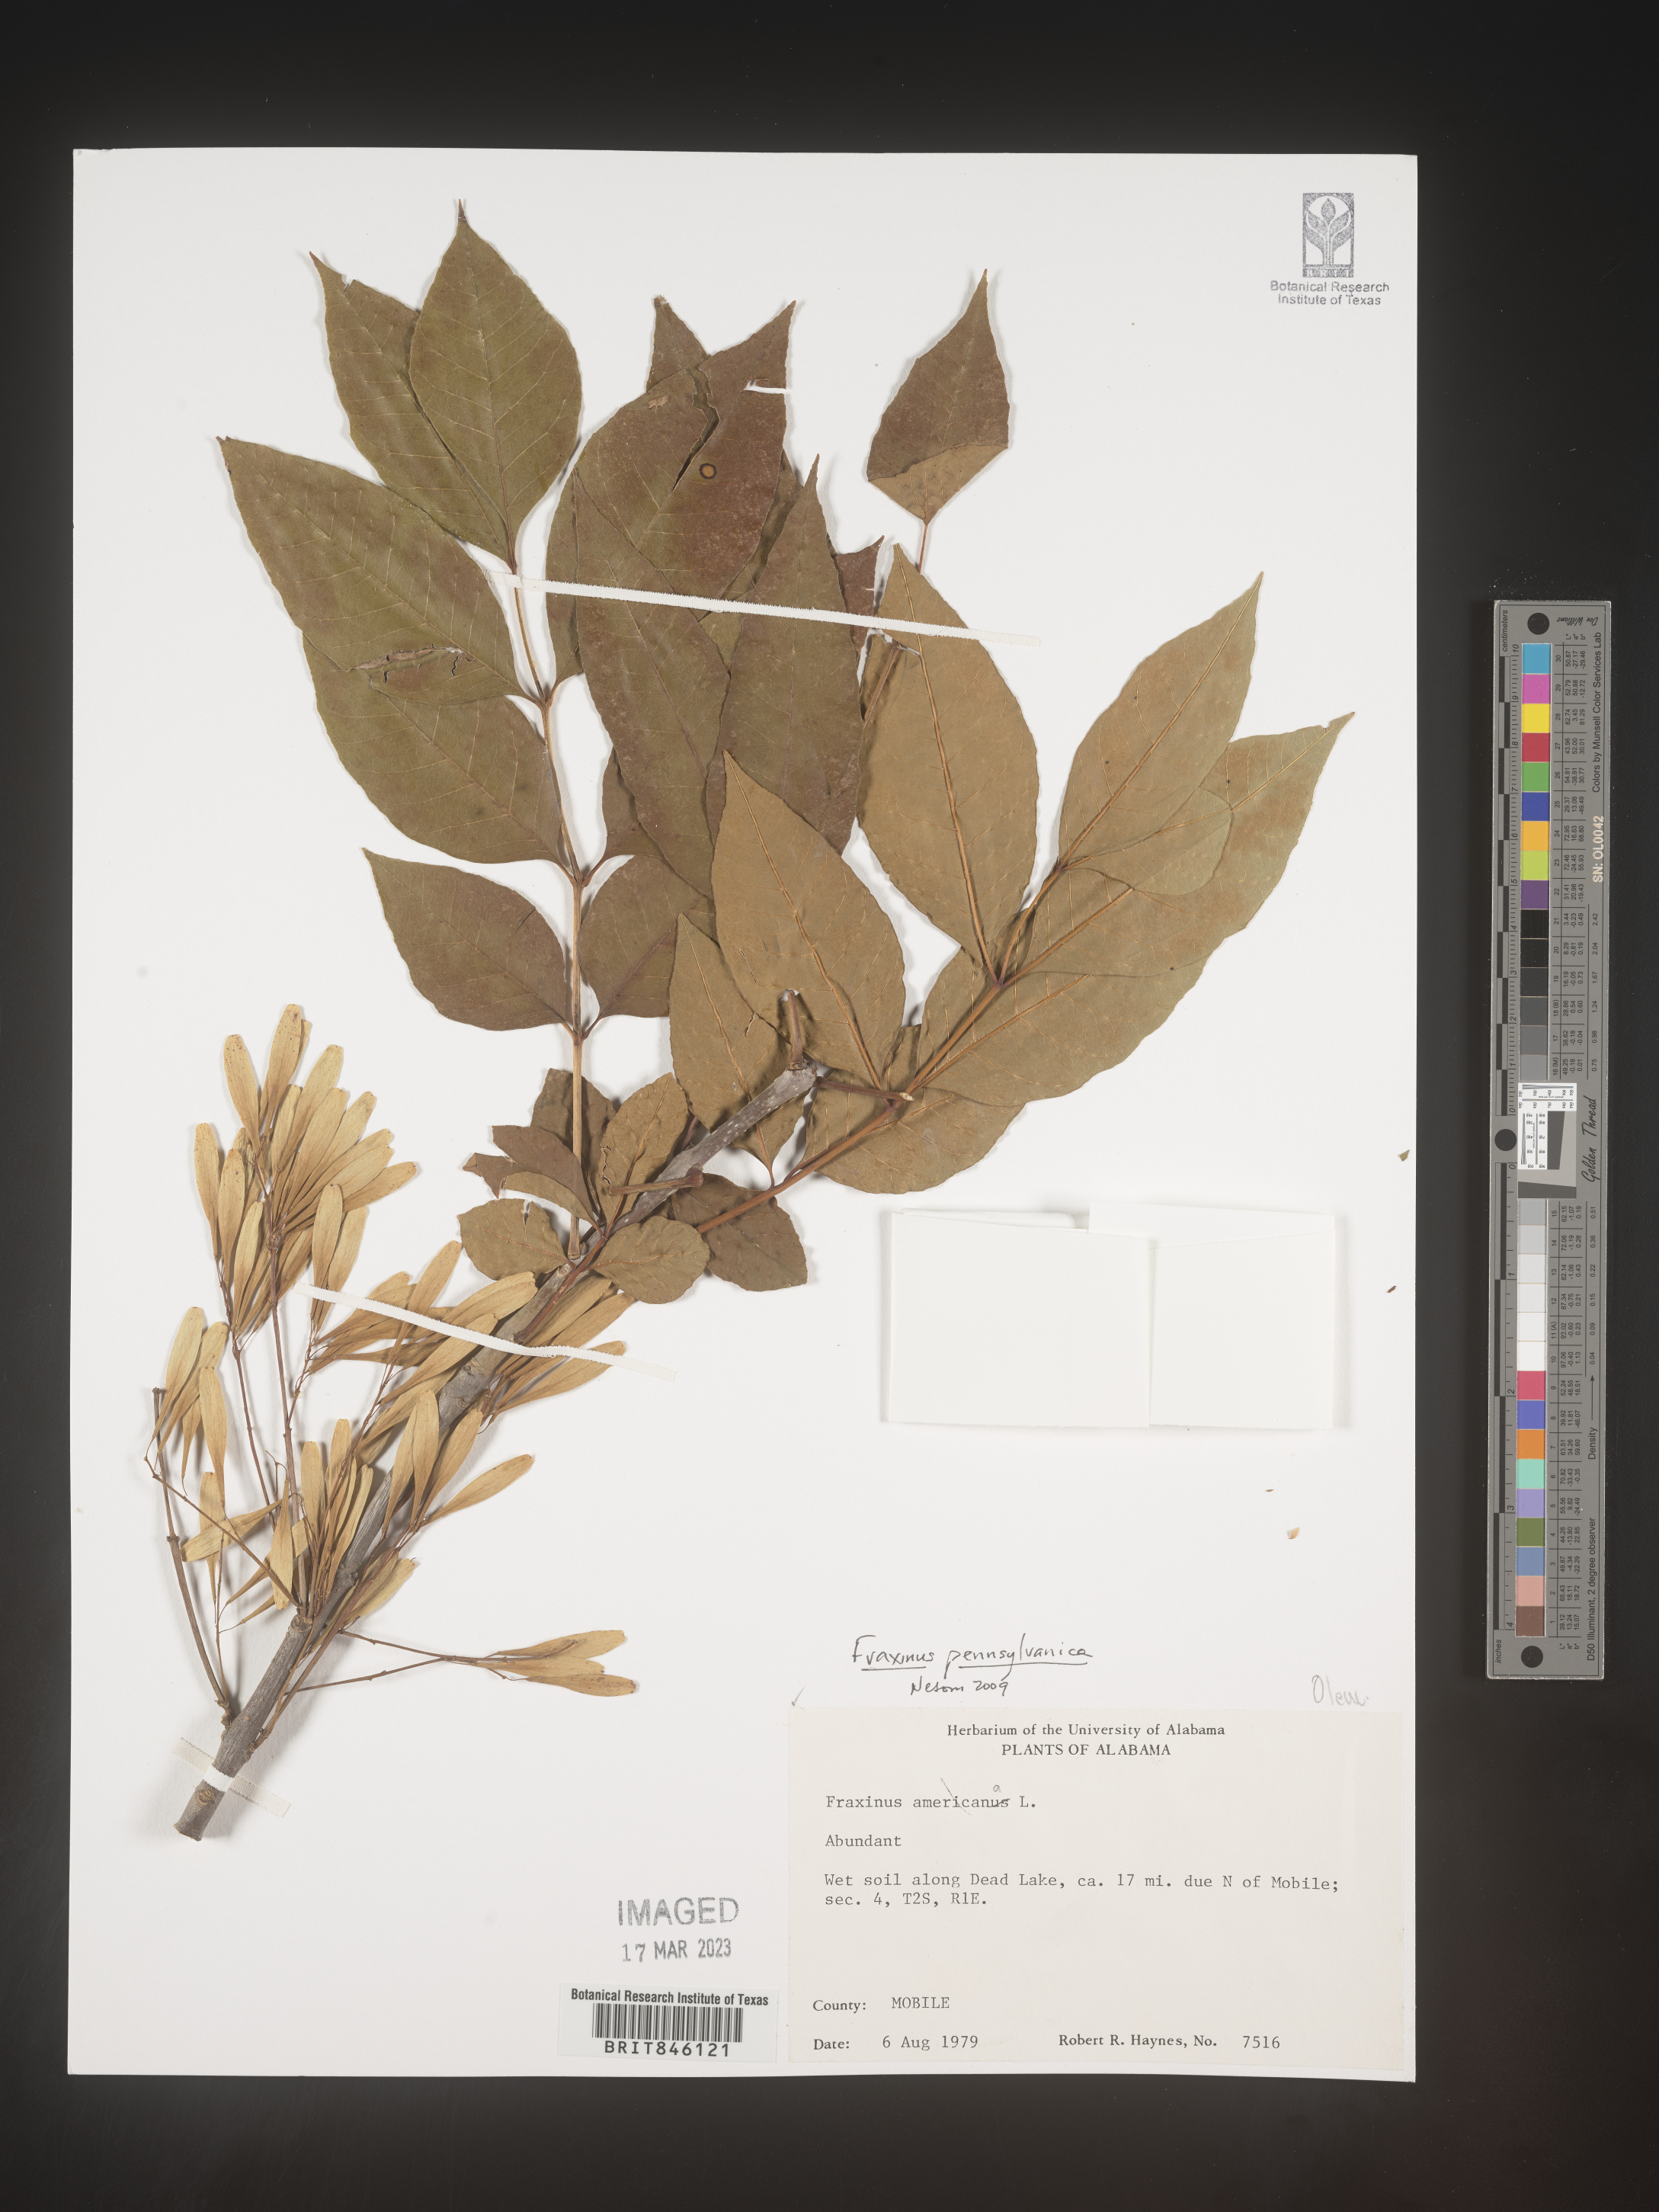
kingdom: Plantae
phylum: Tracheophyta
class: Magnoliopsida
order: Lamiales
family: Oleaceae
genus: Fraxinus
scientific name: Fraxinus pennsylvanica
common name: Green ash
